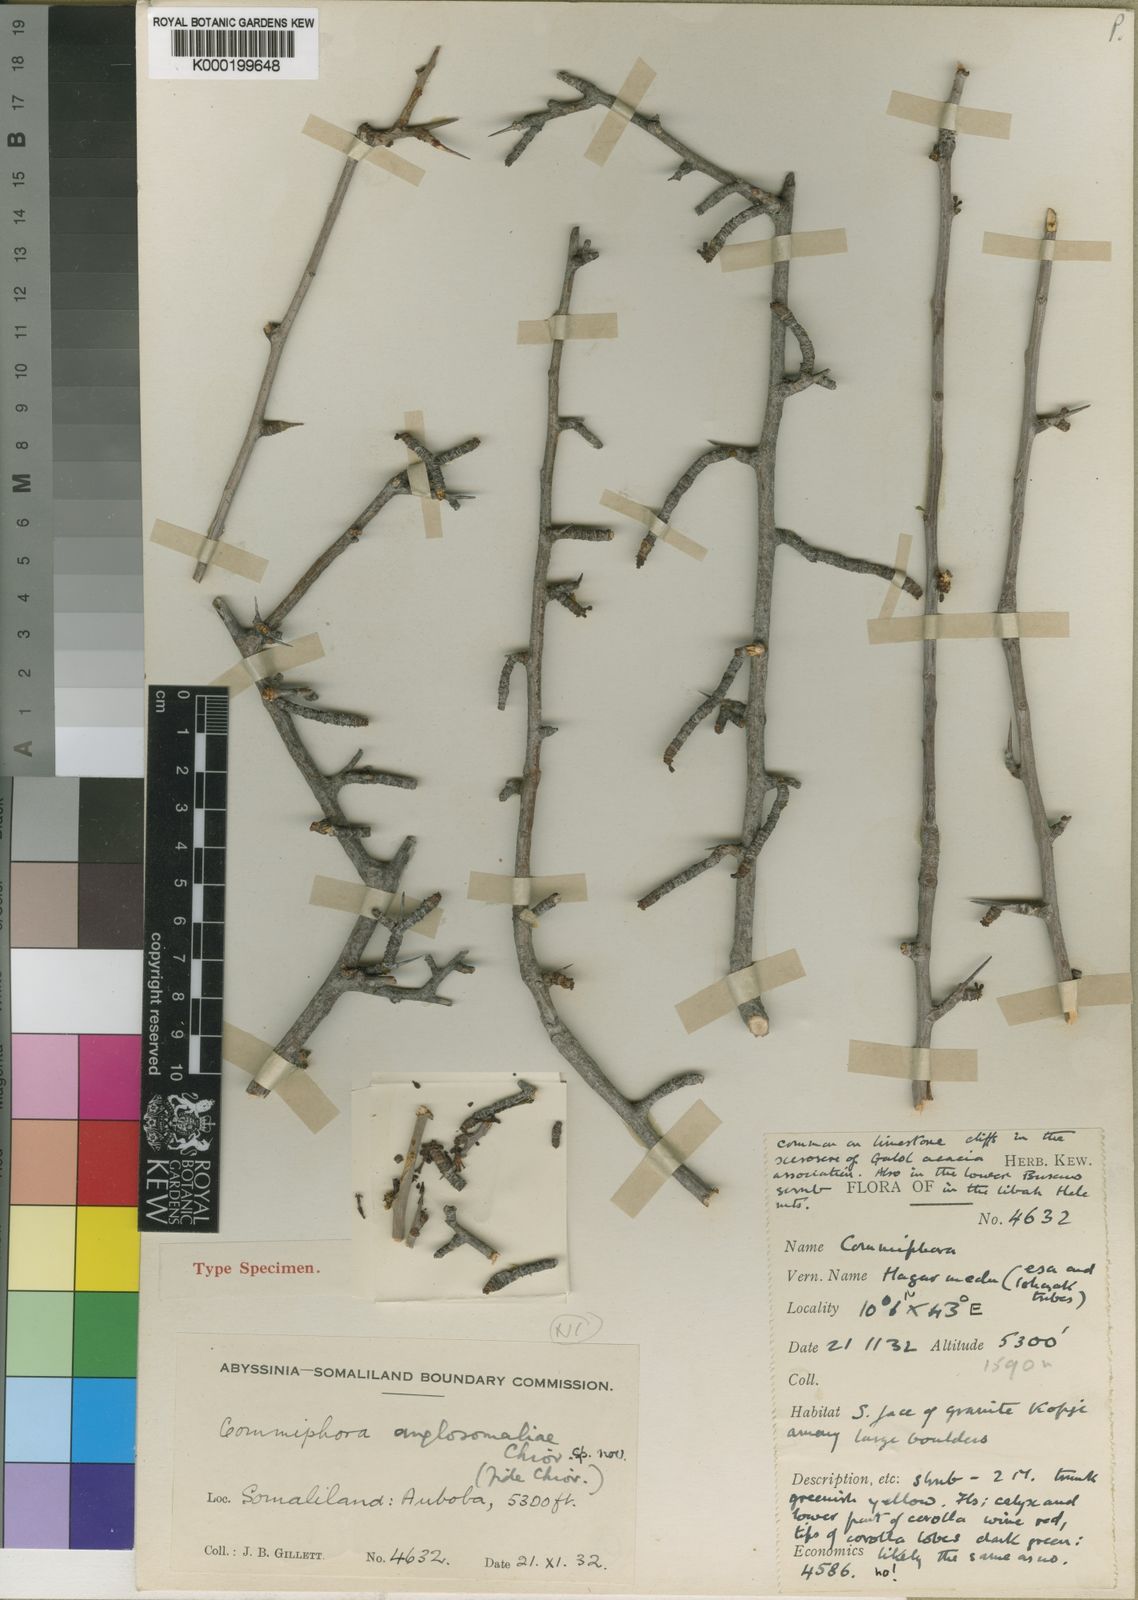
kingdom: Plantae
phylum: Tracheophyta
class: Magnoliopsida
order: Sapindales
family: Burseraceae
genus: Commiphora
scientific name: Commiphora serrulata
